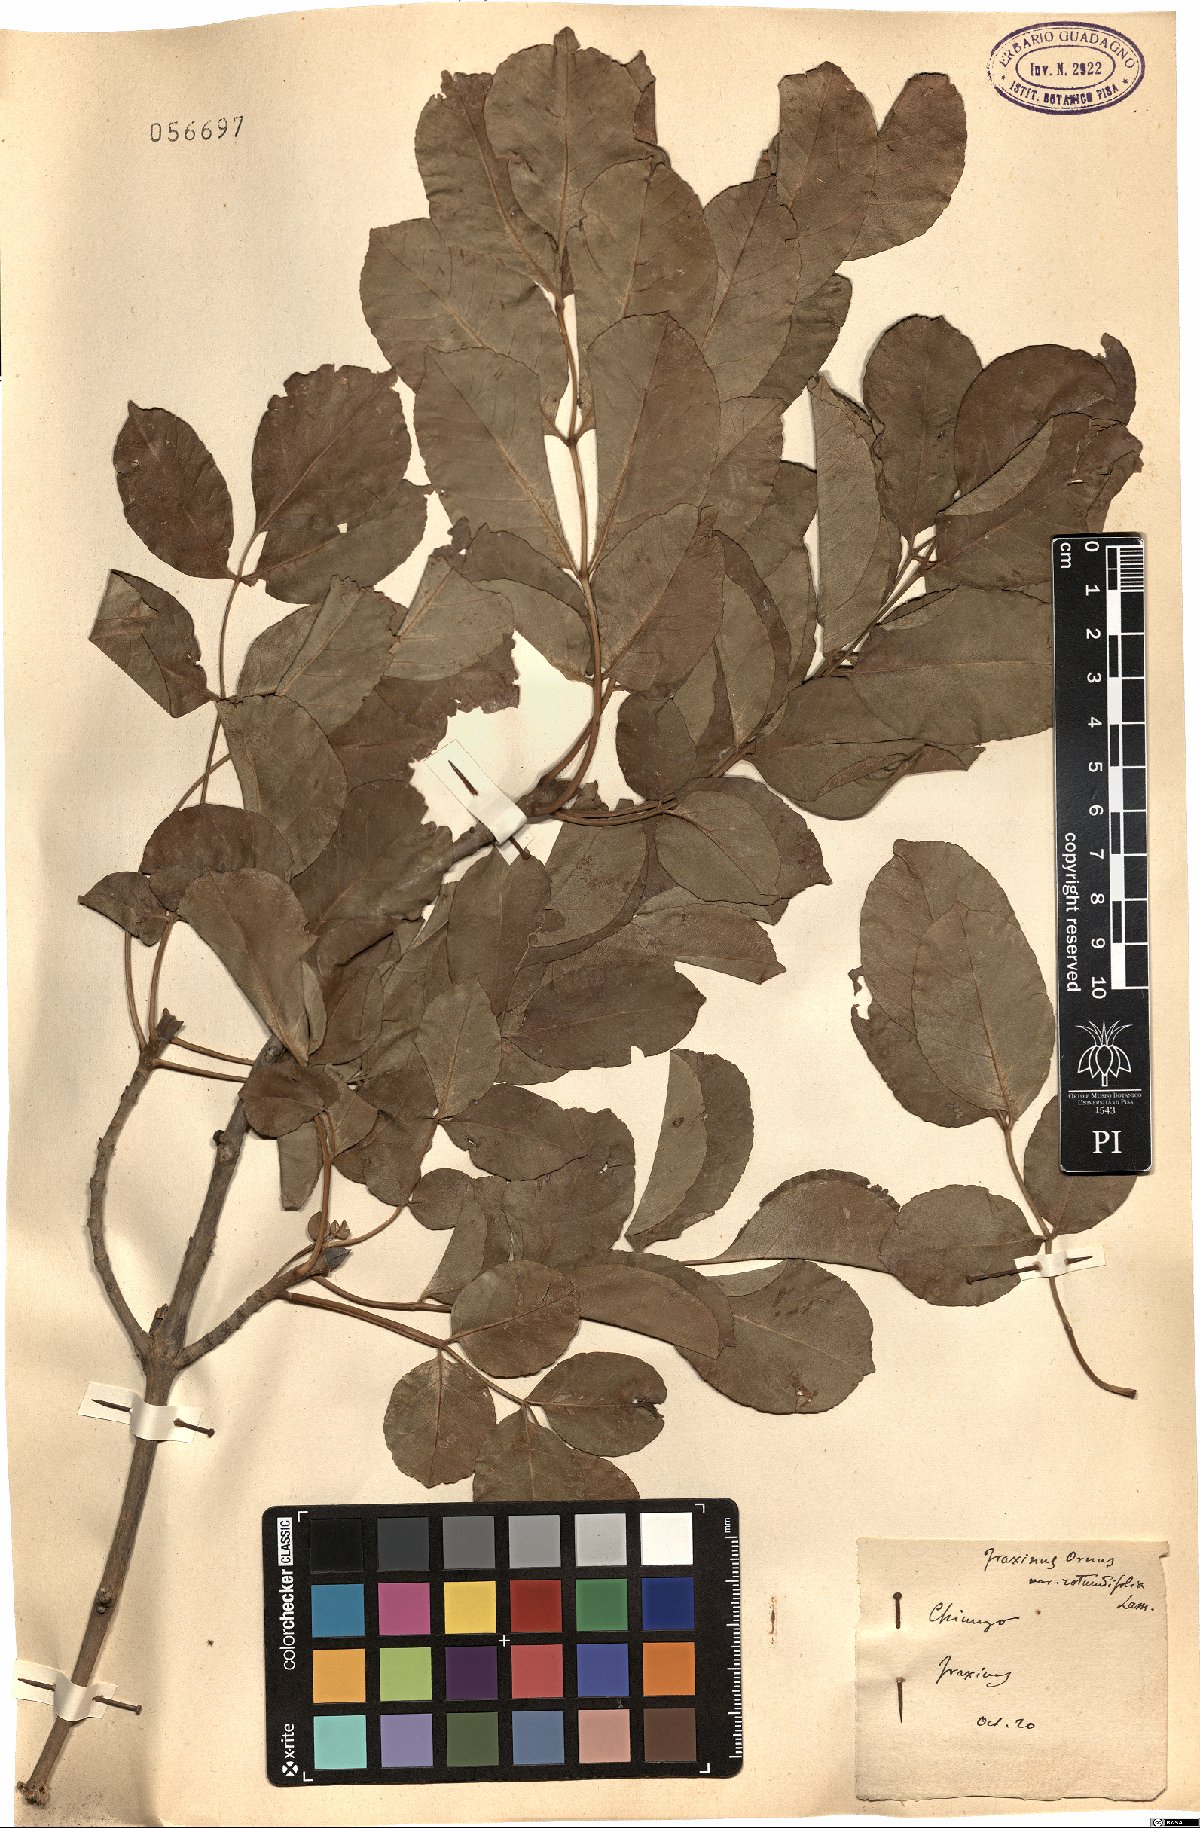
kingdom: Plantae
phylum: Tracheophyta
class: Magnoliopsida
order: Lamiales
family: Oleaceae
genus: Fraxinus
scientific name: Fraxinus ornus
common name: Manna ash
